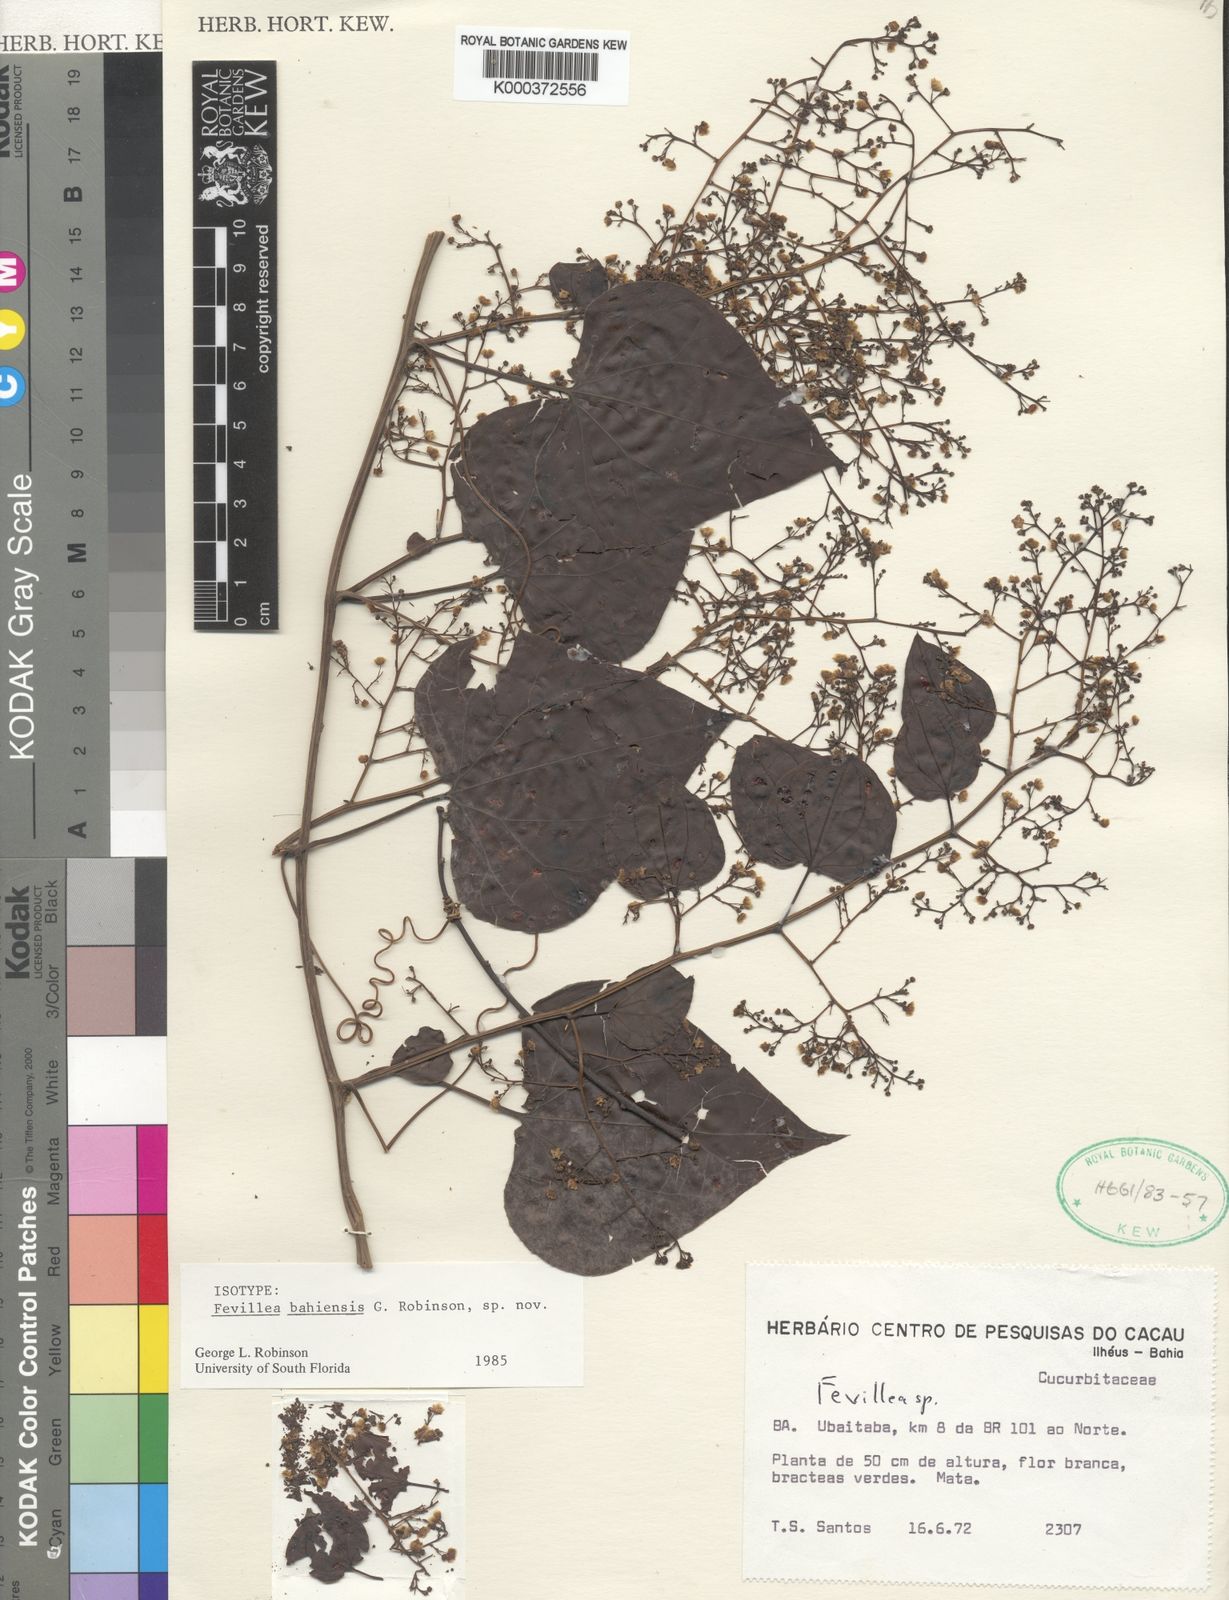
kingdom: Plantae
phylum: Tracheophyta
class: Magnoliopsida
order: Cucurbitales
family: Cucurbitaceae
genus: Fevillea
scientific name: Fevillea bahiensis
